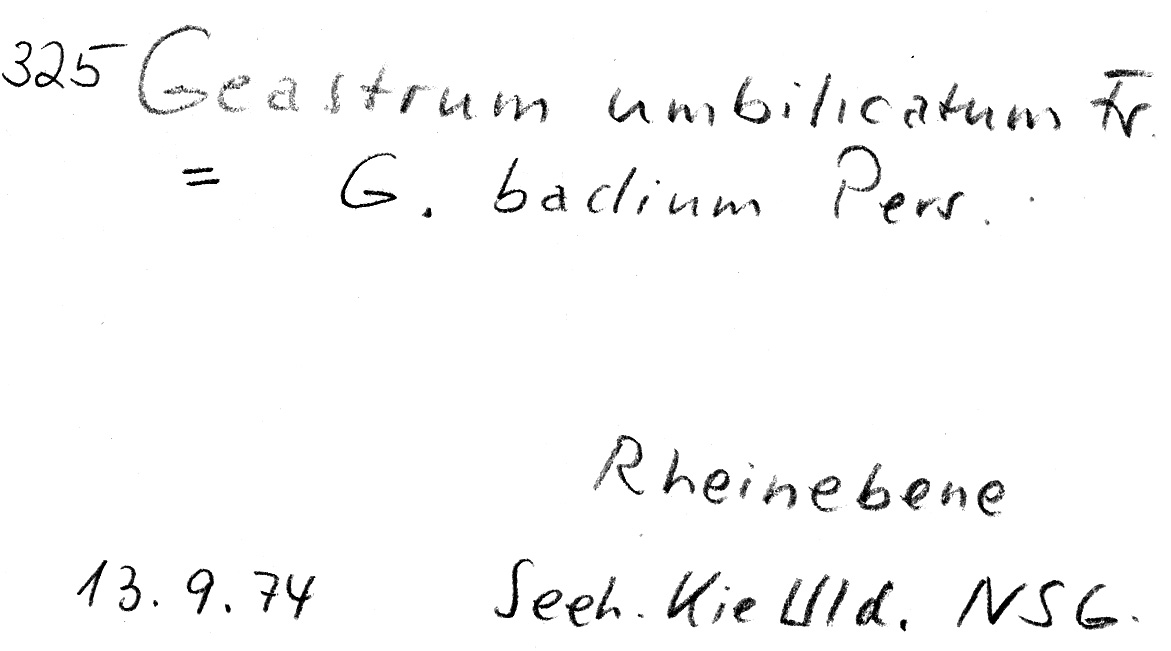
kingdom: Fungi
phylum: Basidiomycota
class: Agaricomycetes
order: Geastrales
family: Geastraceae
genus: Geastrum
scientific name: Geastrum elegans
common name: Elegant earthstar
